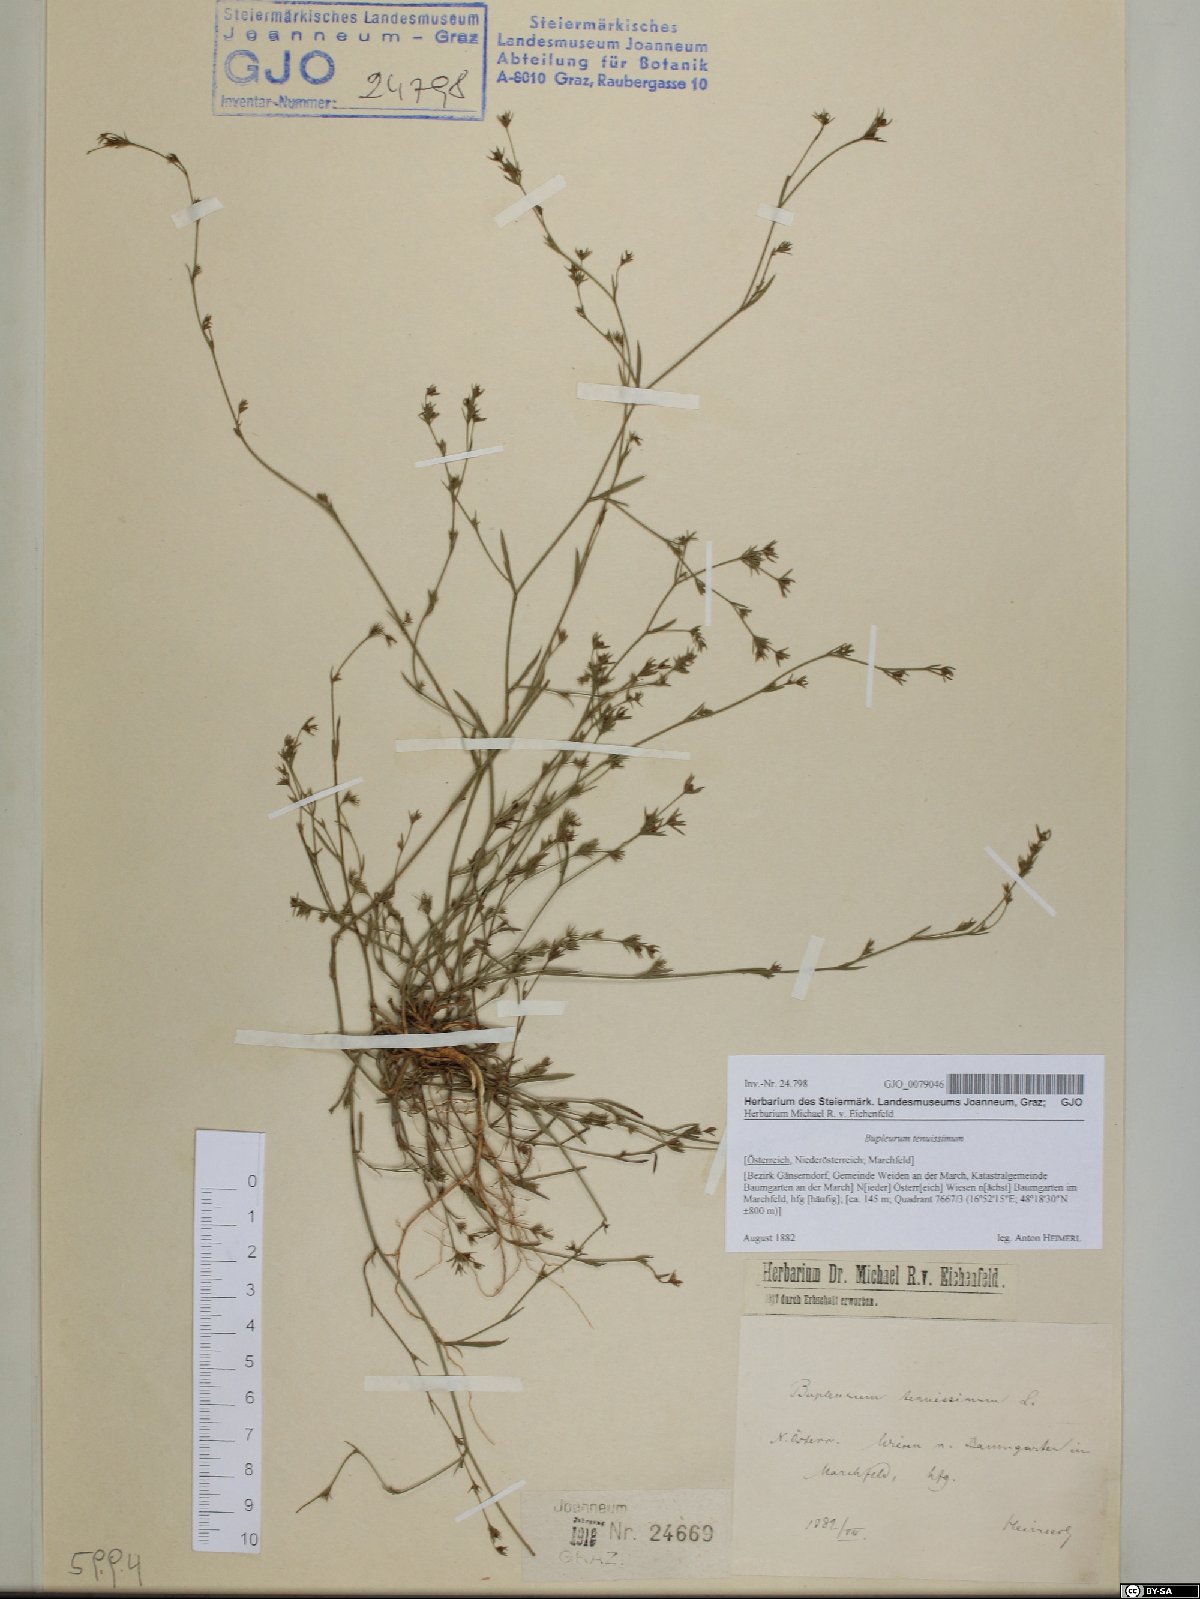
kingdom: Plantae
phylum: Tracheophyta
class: Magnoliopsida
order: Apiales
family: Apiaceae
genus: Bupleurum
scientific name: Bupleurum tenuissimum
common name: Slender hare's-ear
